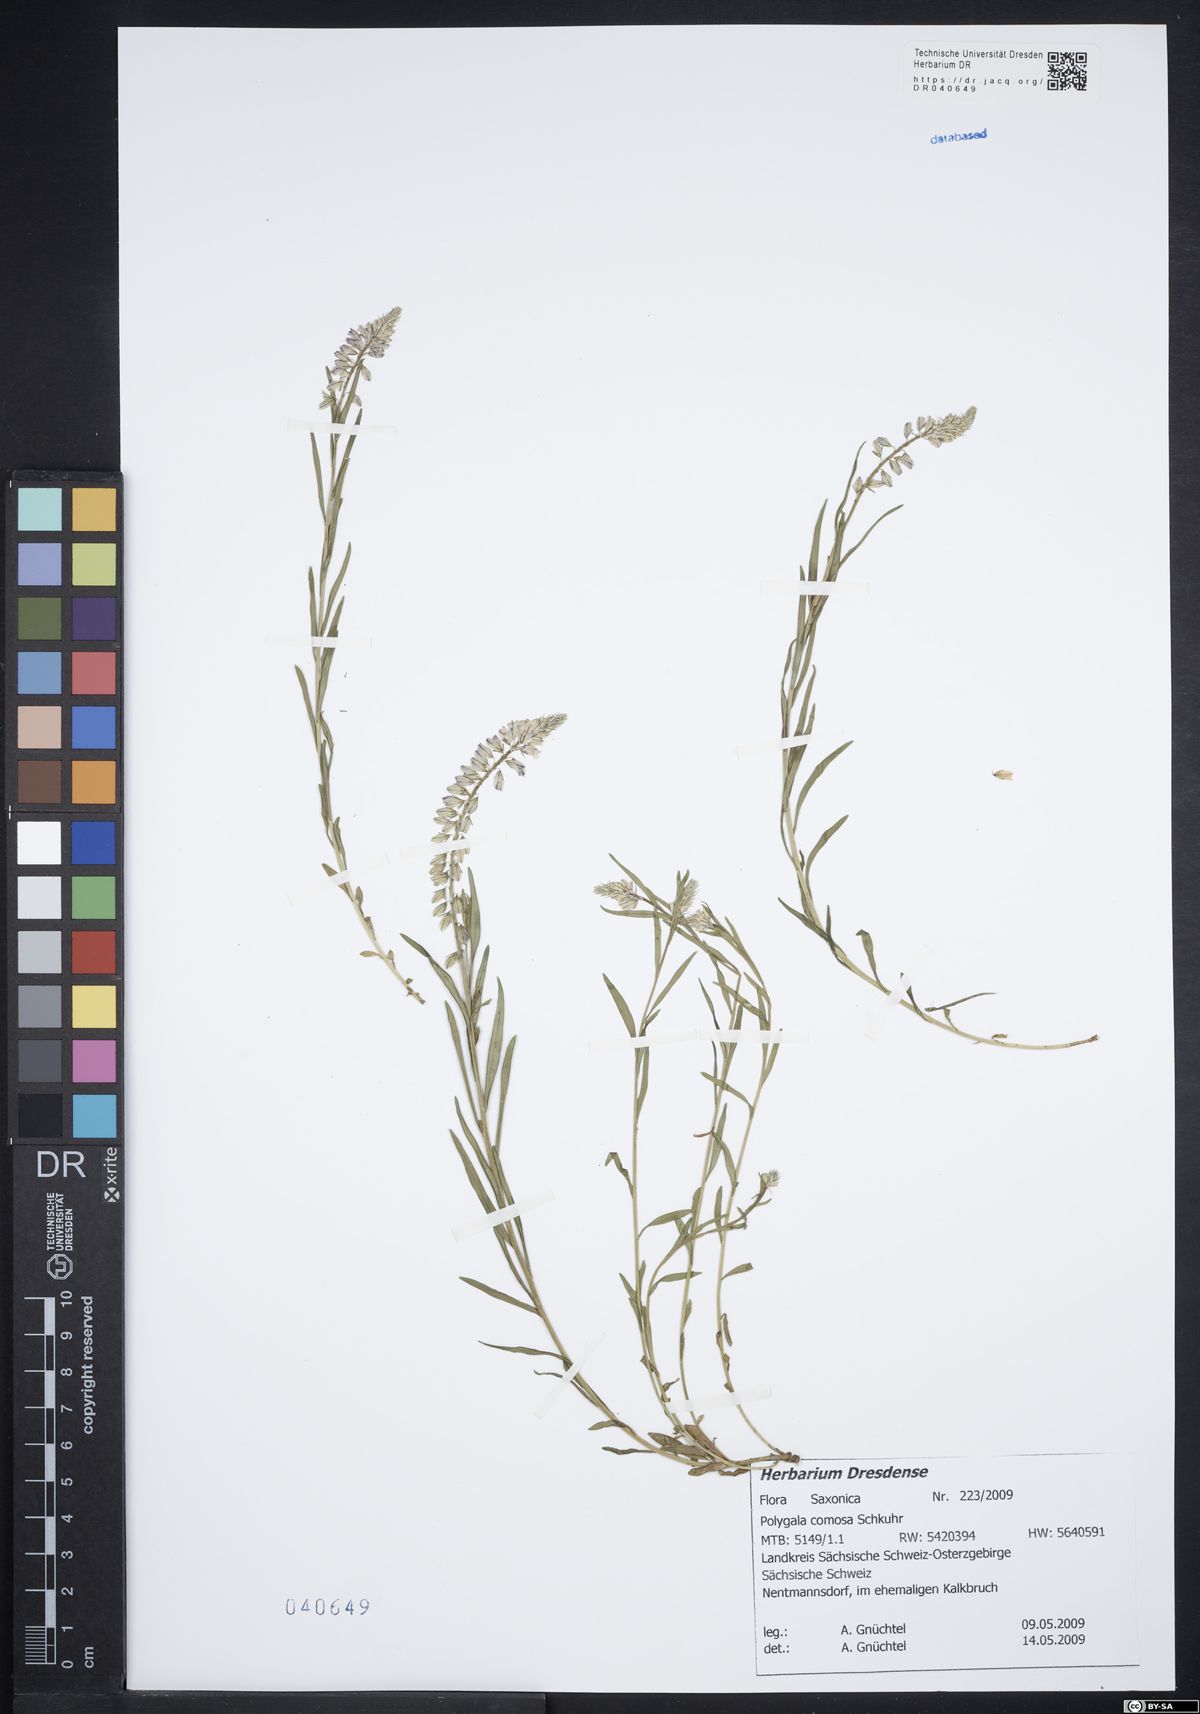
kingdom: Plantae
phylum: Tracheophyta
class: Magnoliopsida
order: Fabales
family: Polygalaceae
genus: Polygala
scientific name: Polygala comosa
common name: Tufted milkwort
